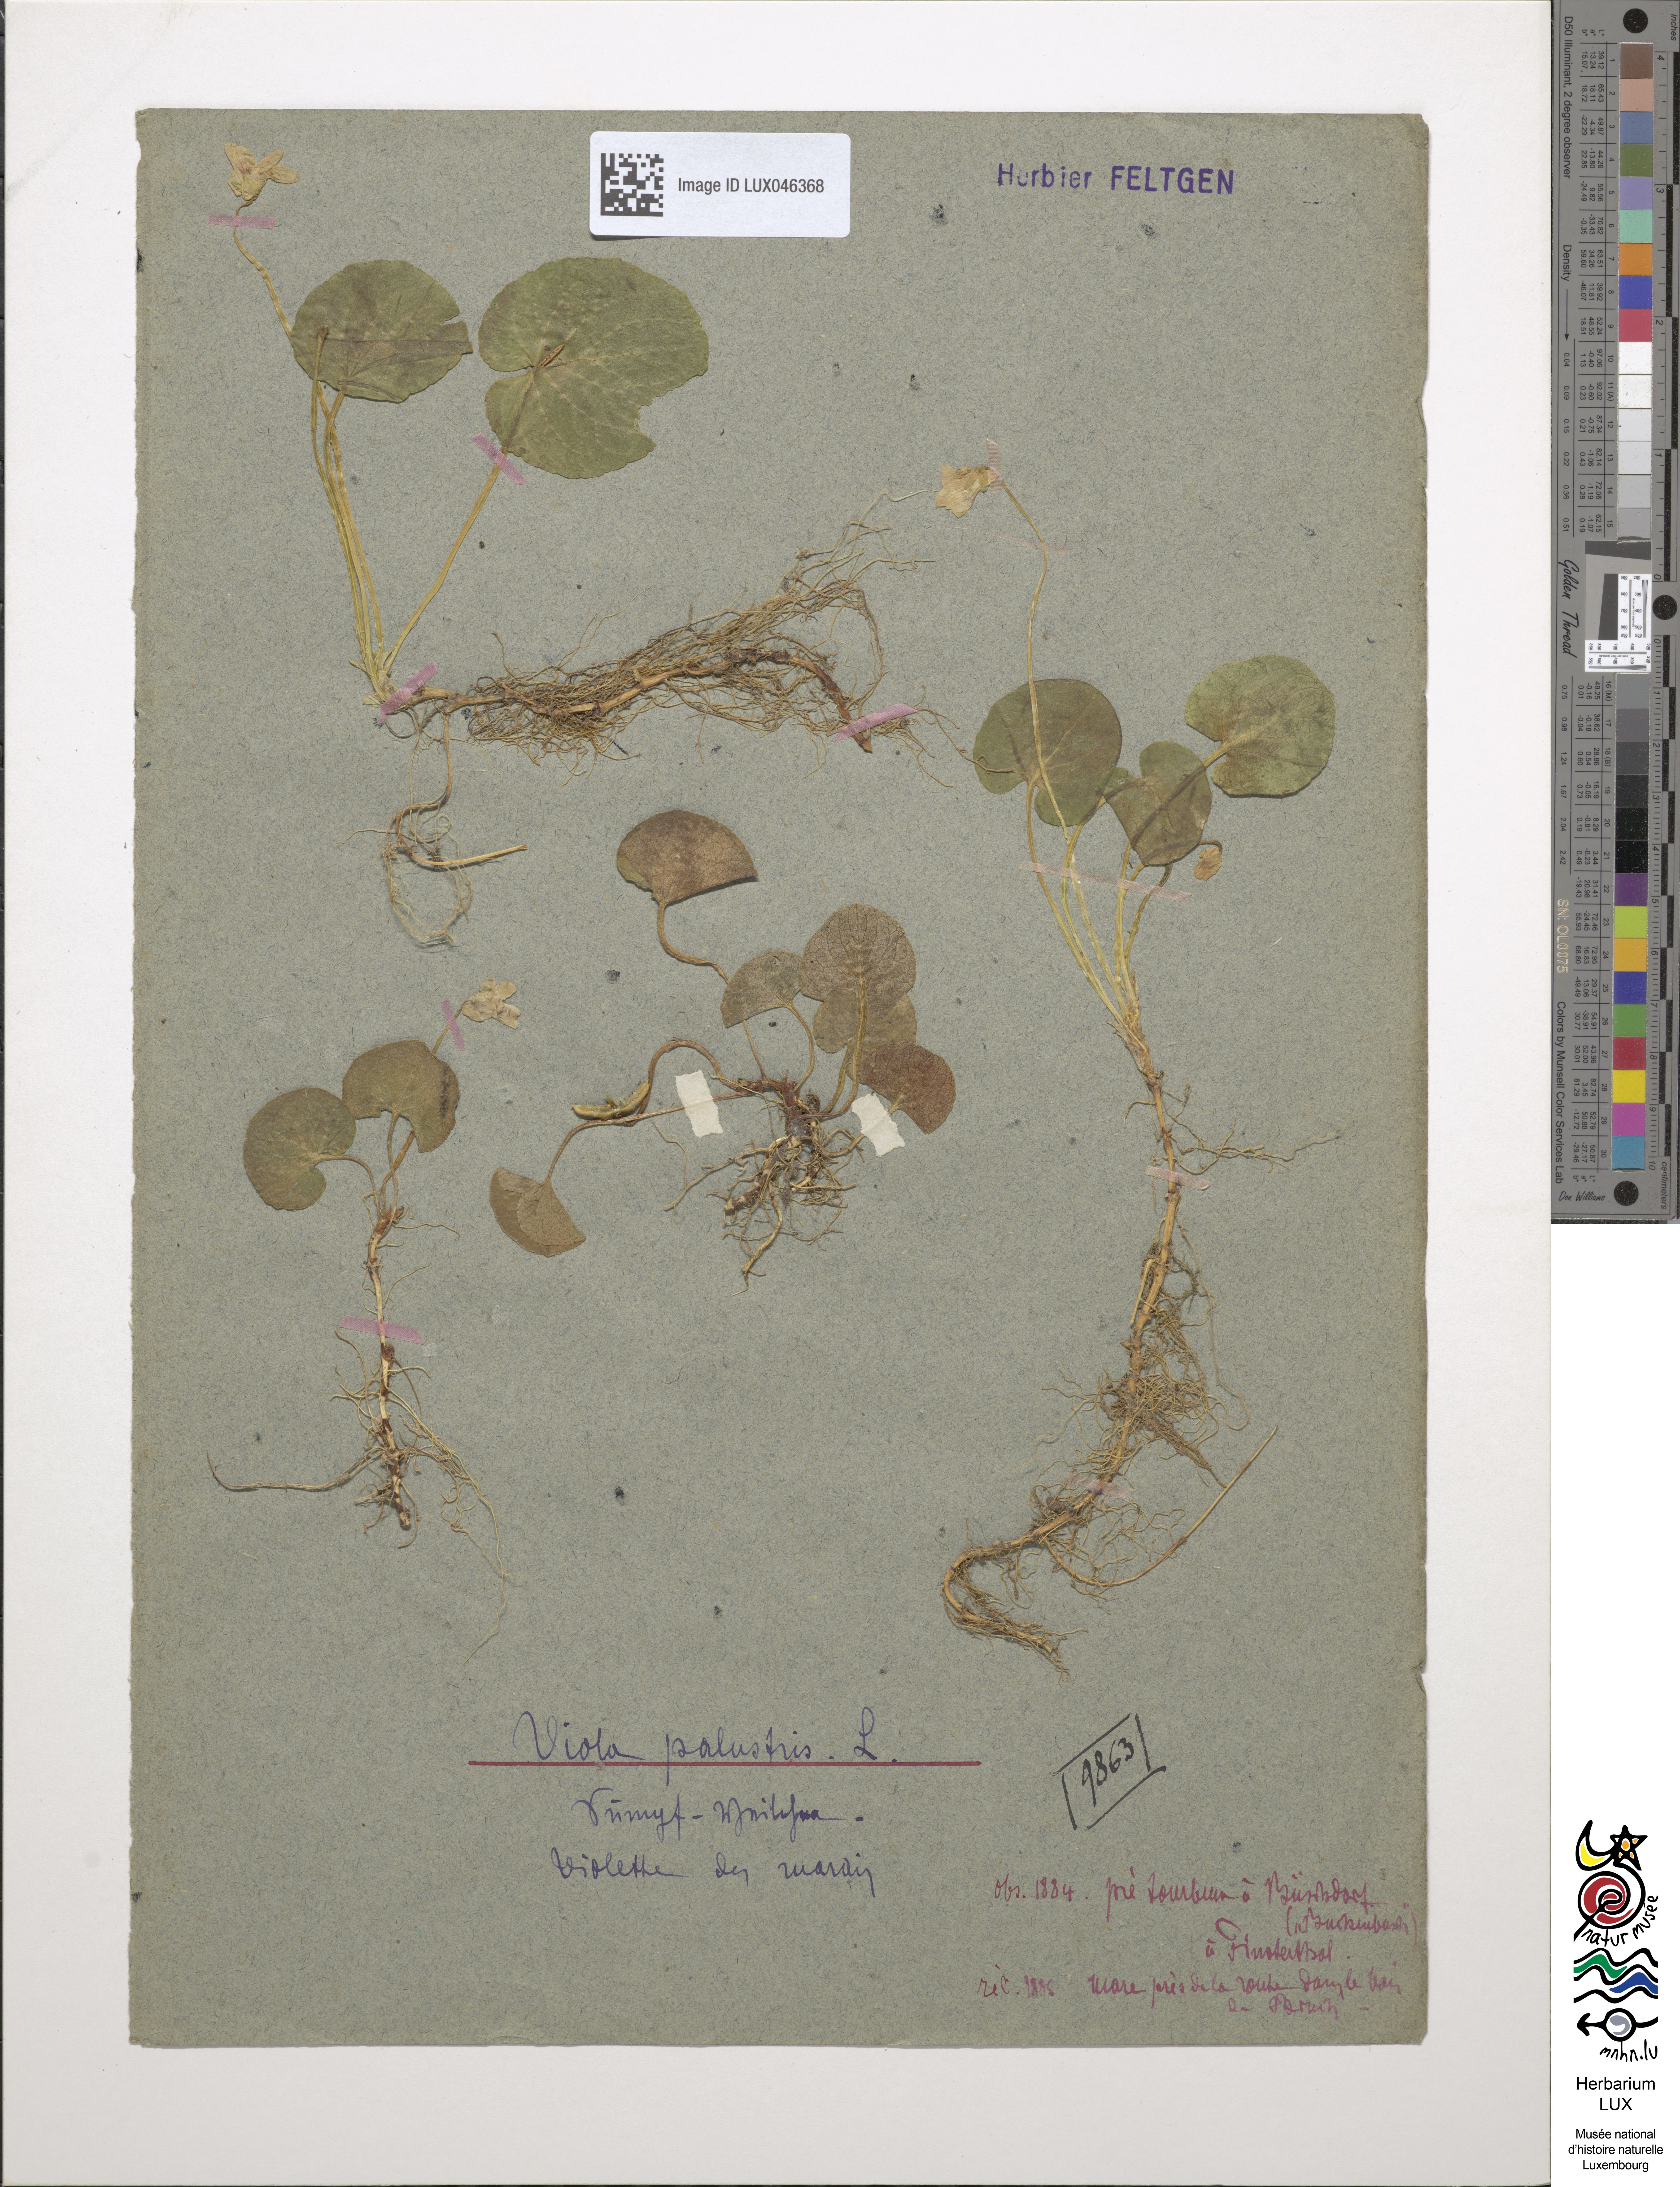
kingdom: Plantae
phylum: Tracheophyta
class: Magnoliopsida
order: Malpighiales
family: Violaceae
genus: Viola
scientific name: Viola palustris
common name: Marsh violet
